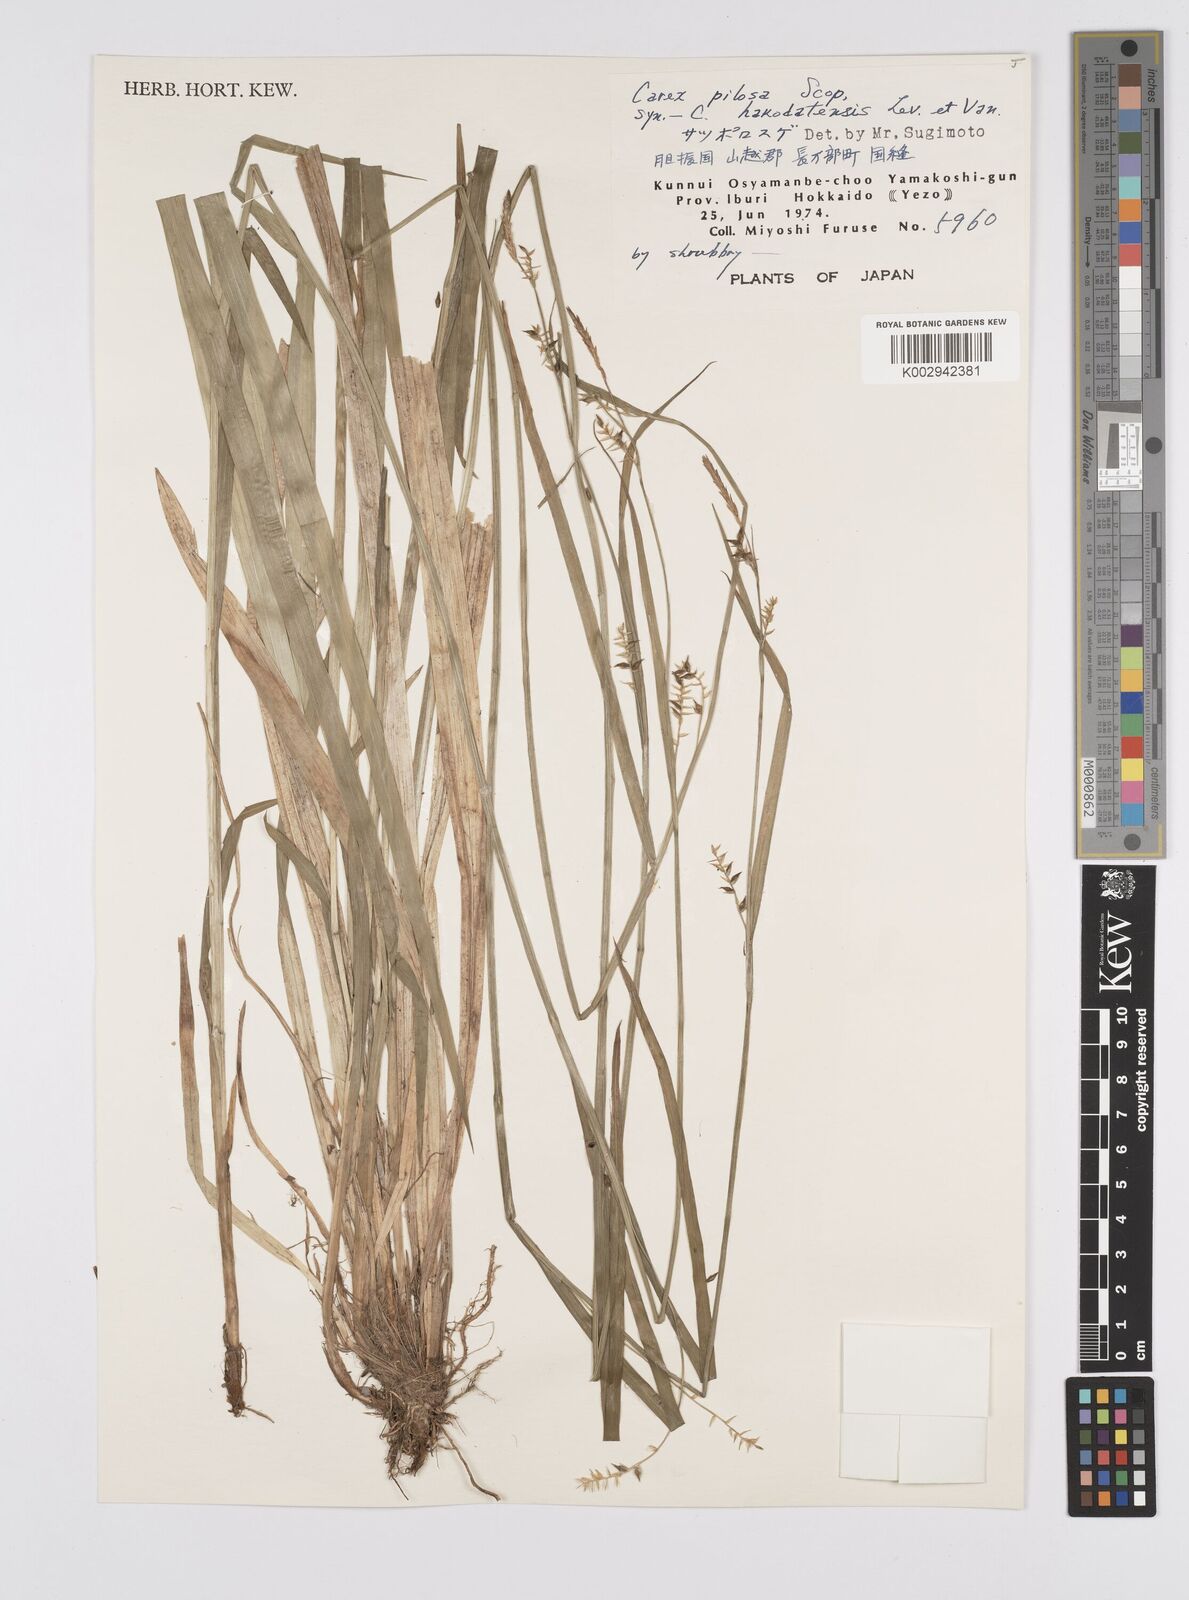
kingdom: Plantae
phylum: Tracheophyta
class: Liliopsida
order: Poales
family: Cyperaceae
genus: Carex
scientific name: Carex pilosa
